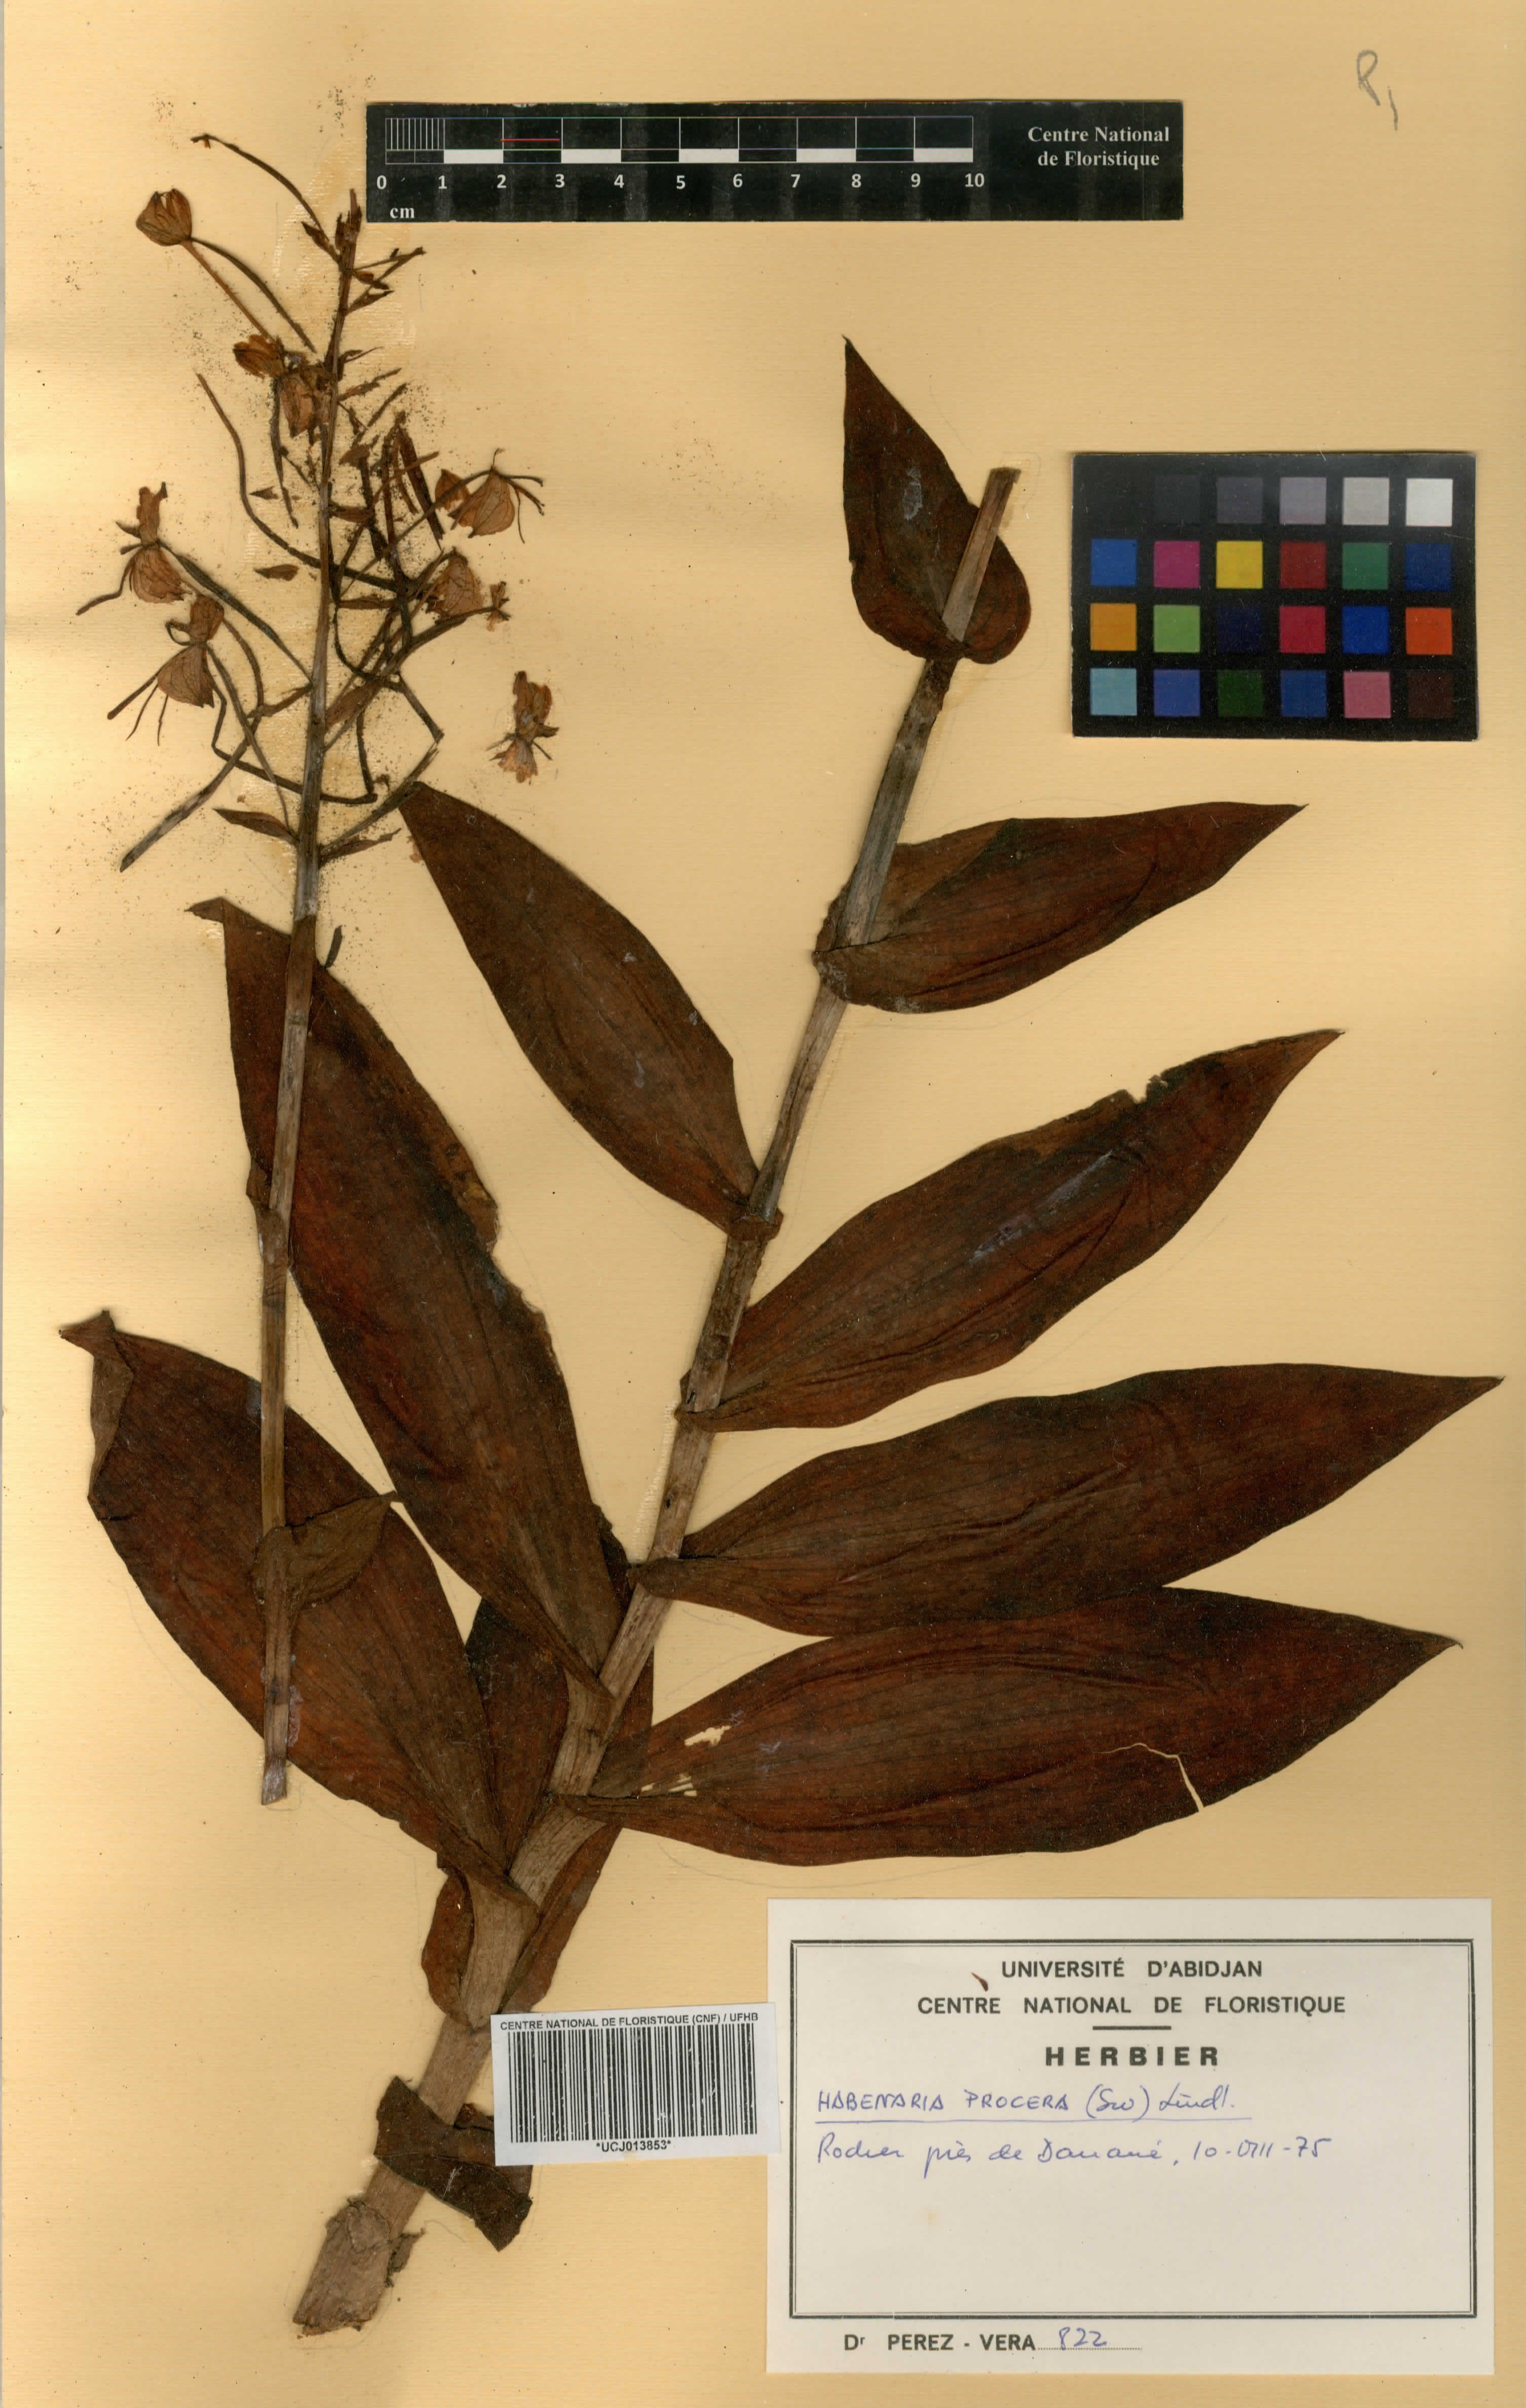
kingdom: Plantae
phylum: Tracheophyta
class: Liliopsida
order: Asparagales
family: Orchidaceae
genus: Habenaria
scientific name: Habenaria procera
